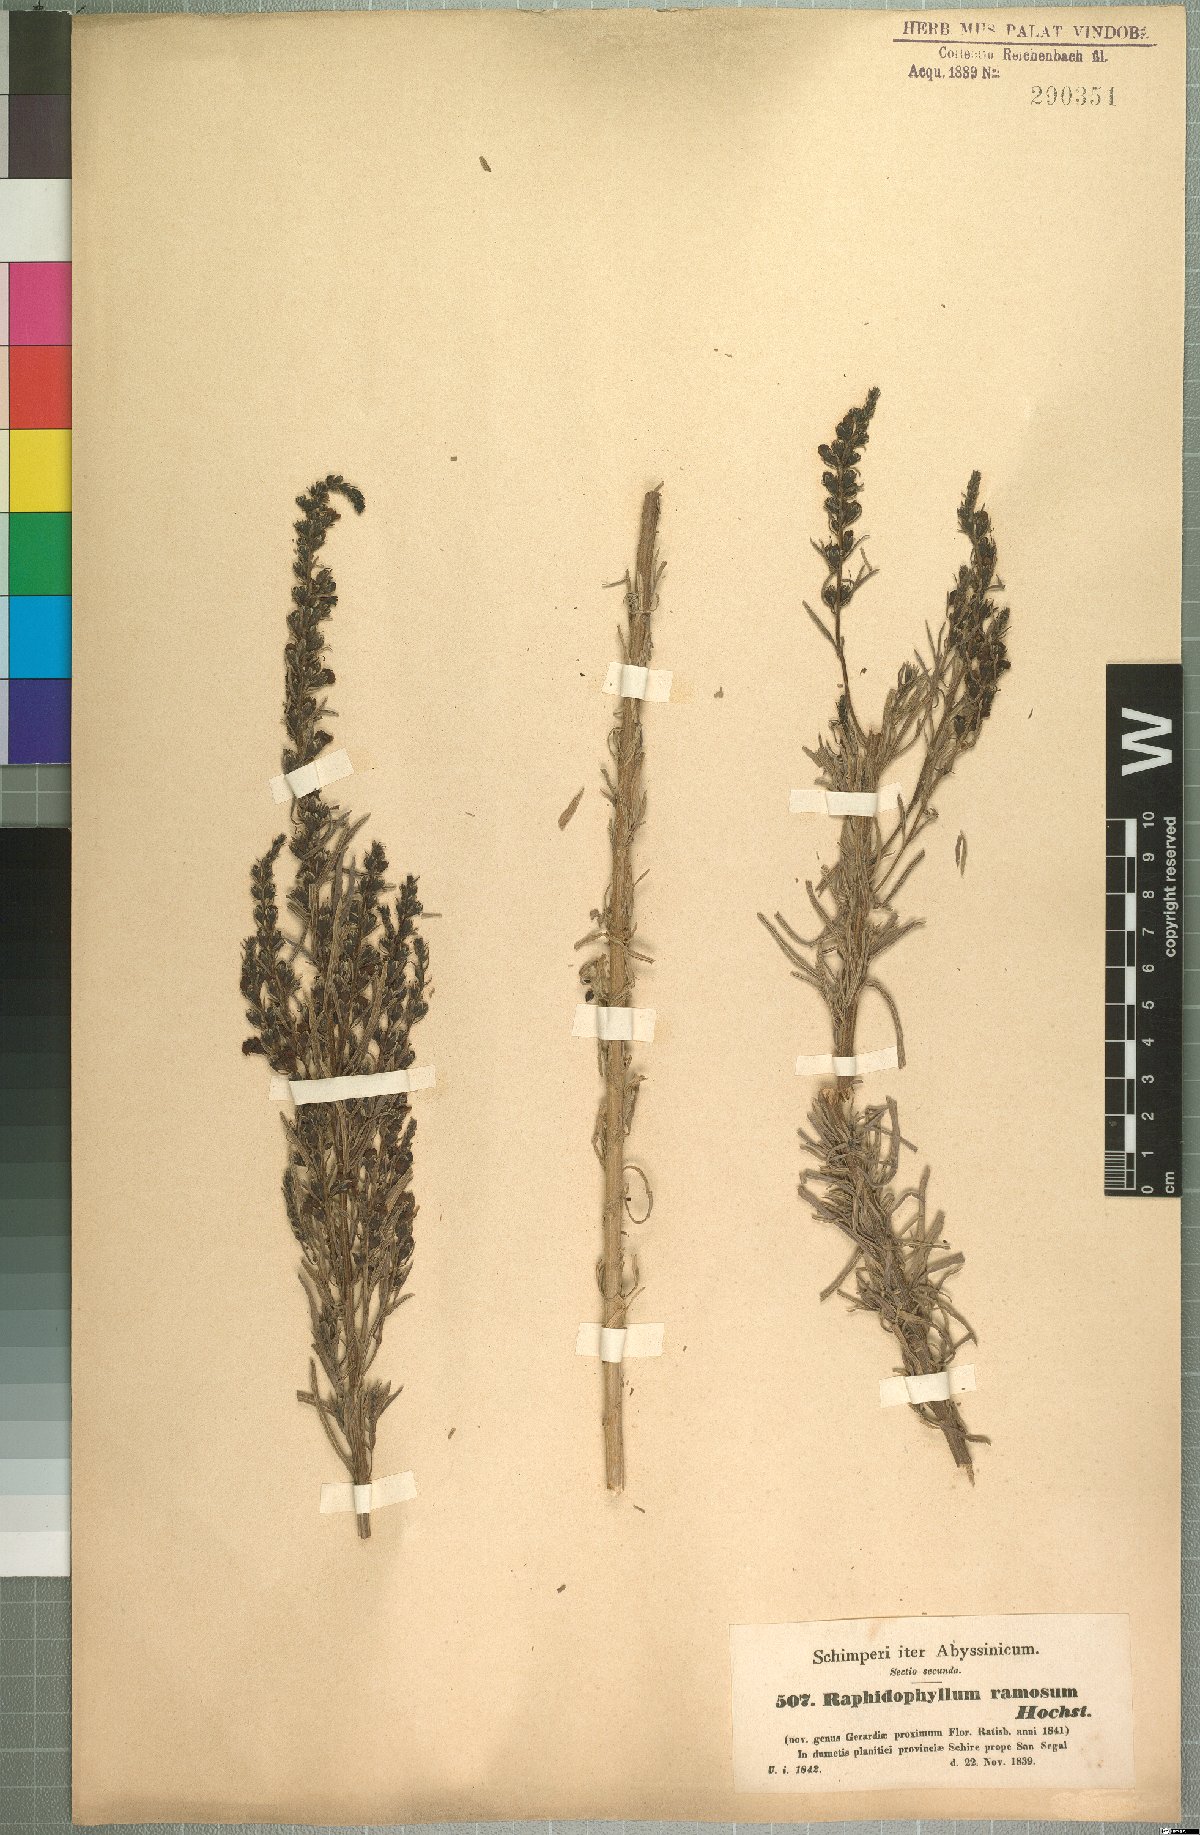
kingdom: Plantae
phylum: Tracheophyta
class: Magnoliopsida
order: Lamiales
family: Orobanchaceae
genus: Sopubia
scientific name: Sopubia ramosa
